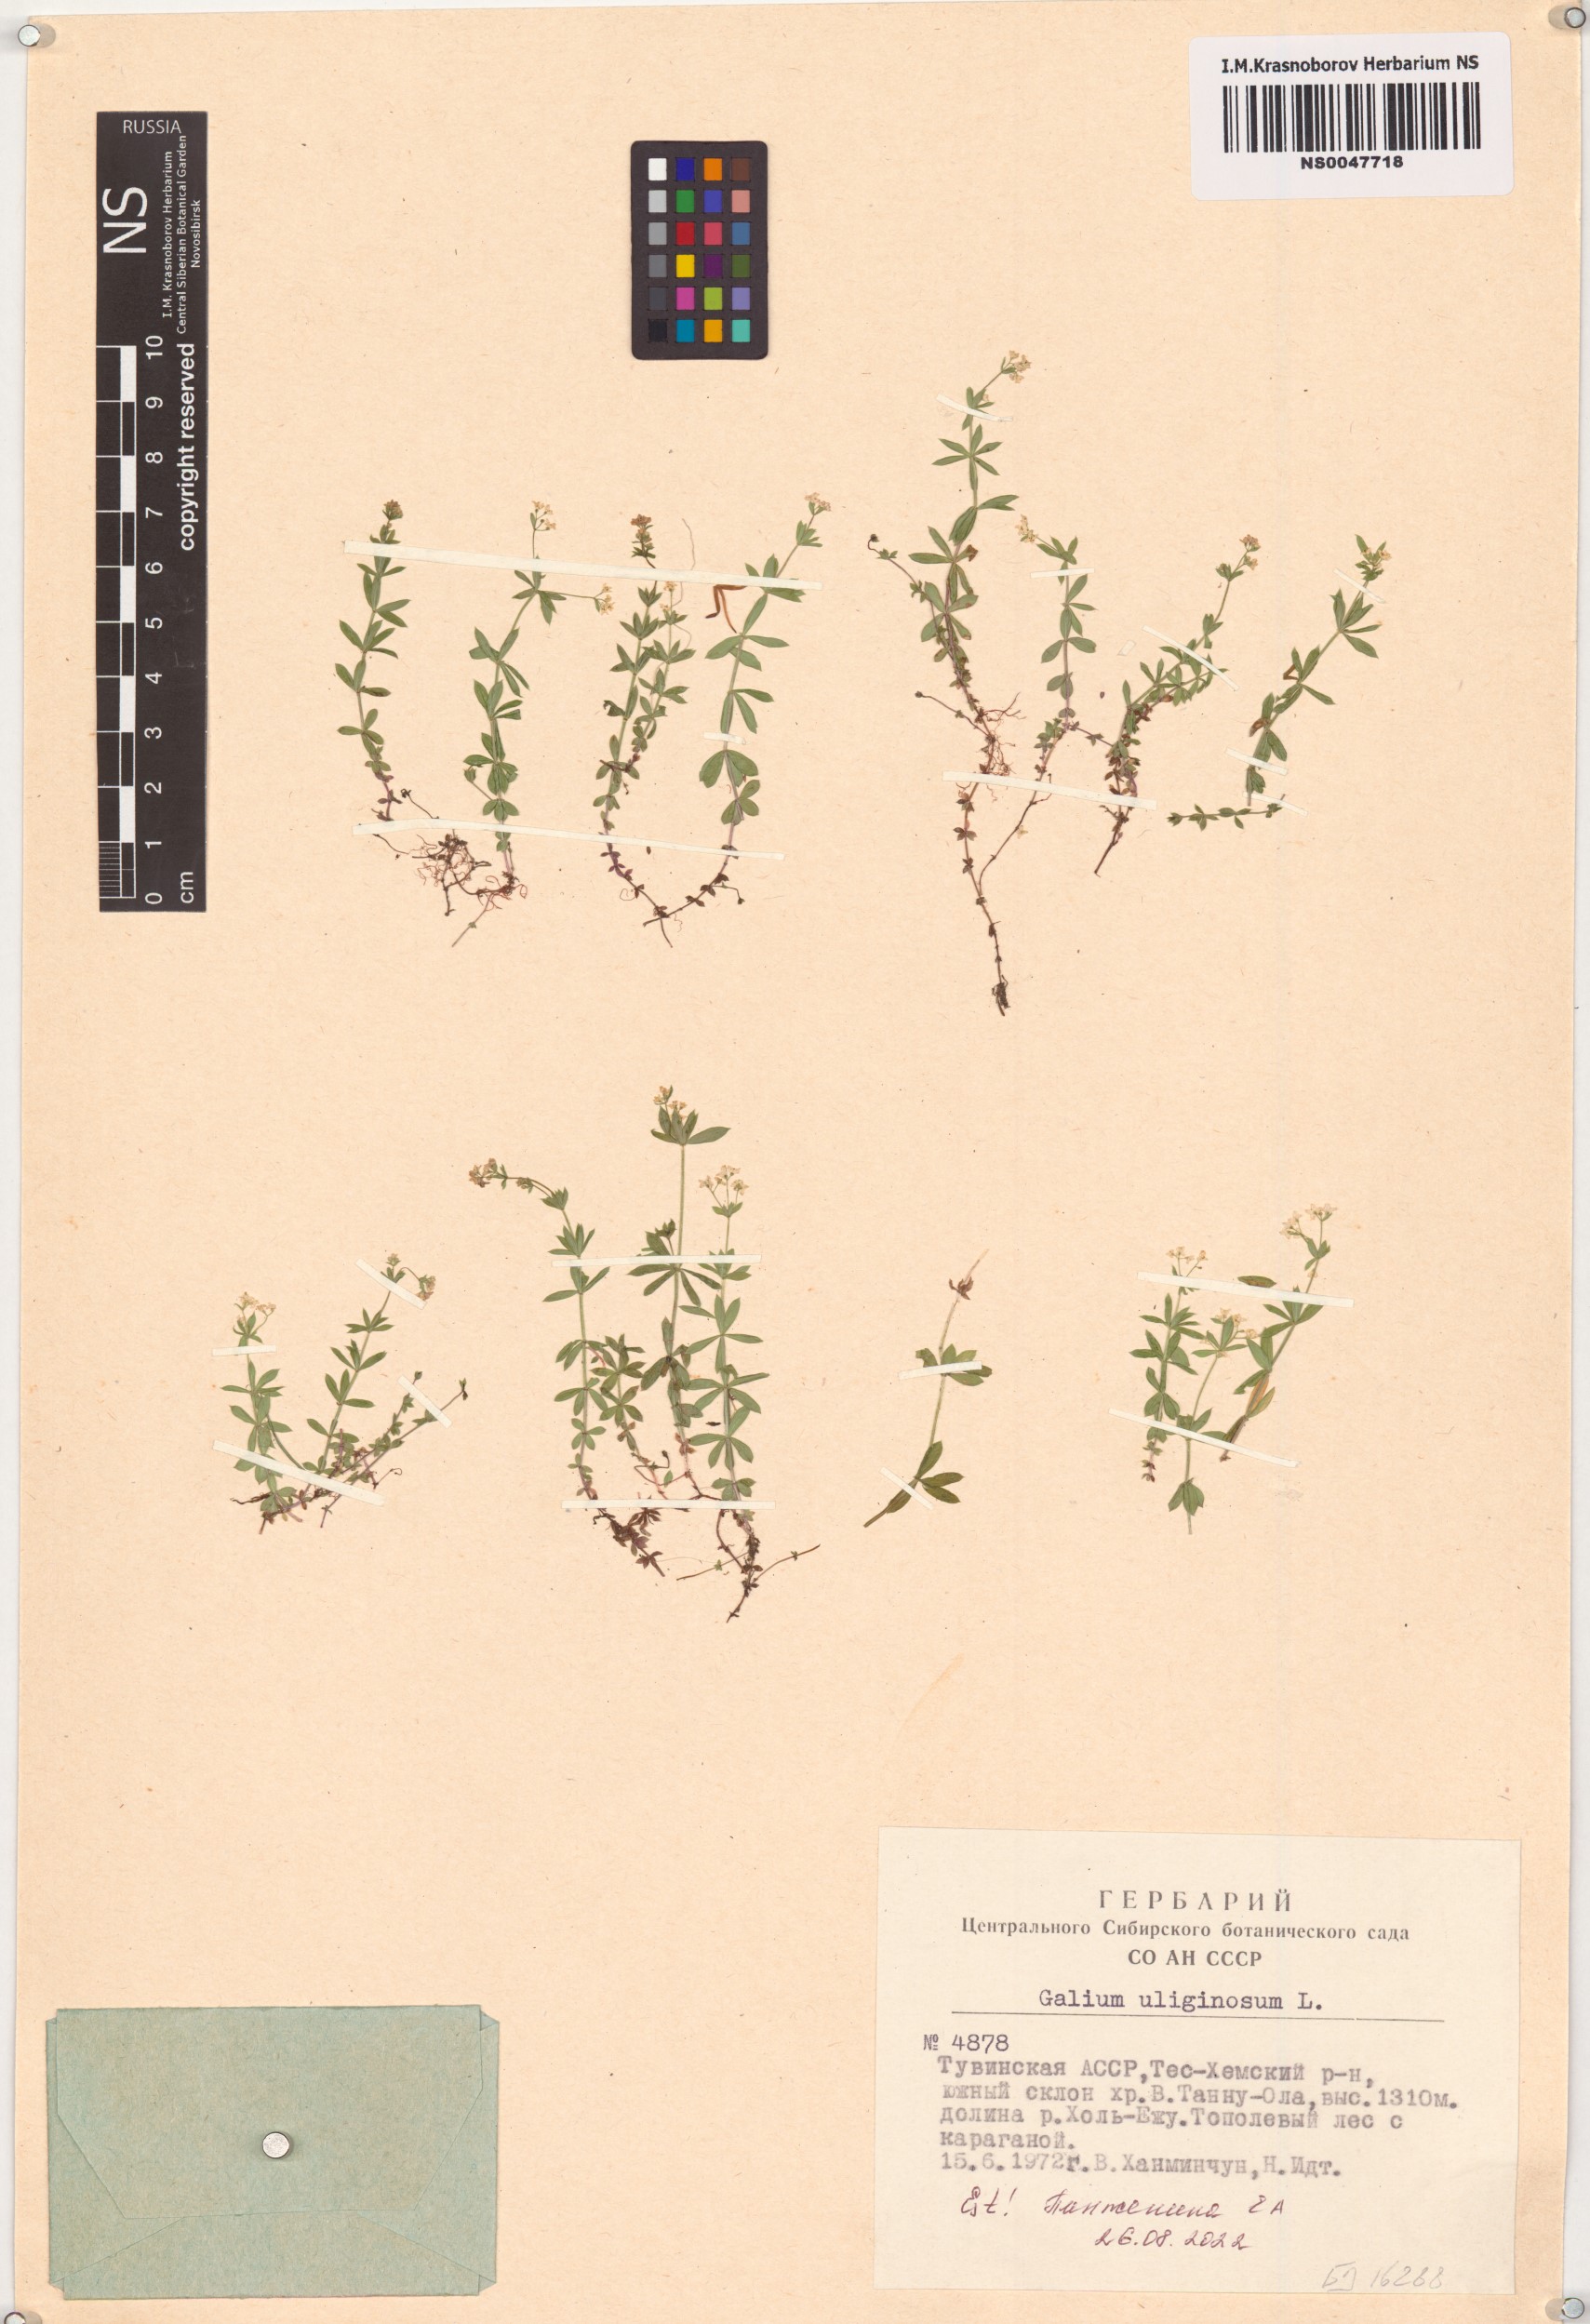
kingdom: Plantae
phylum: Tracheophyta
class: Magnoliopsida
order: Gentianales
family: Rubiaceae
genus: Galium
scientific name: Galium uliginosum
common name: Fen bedstraw
